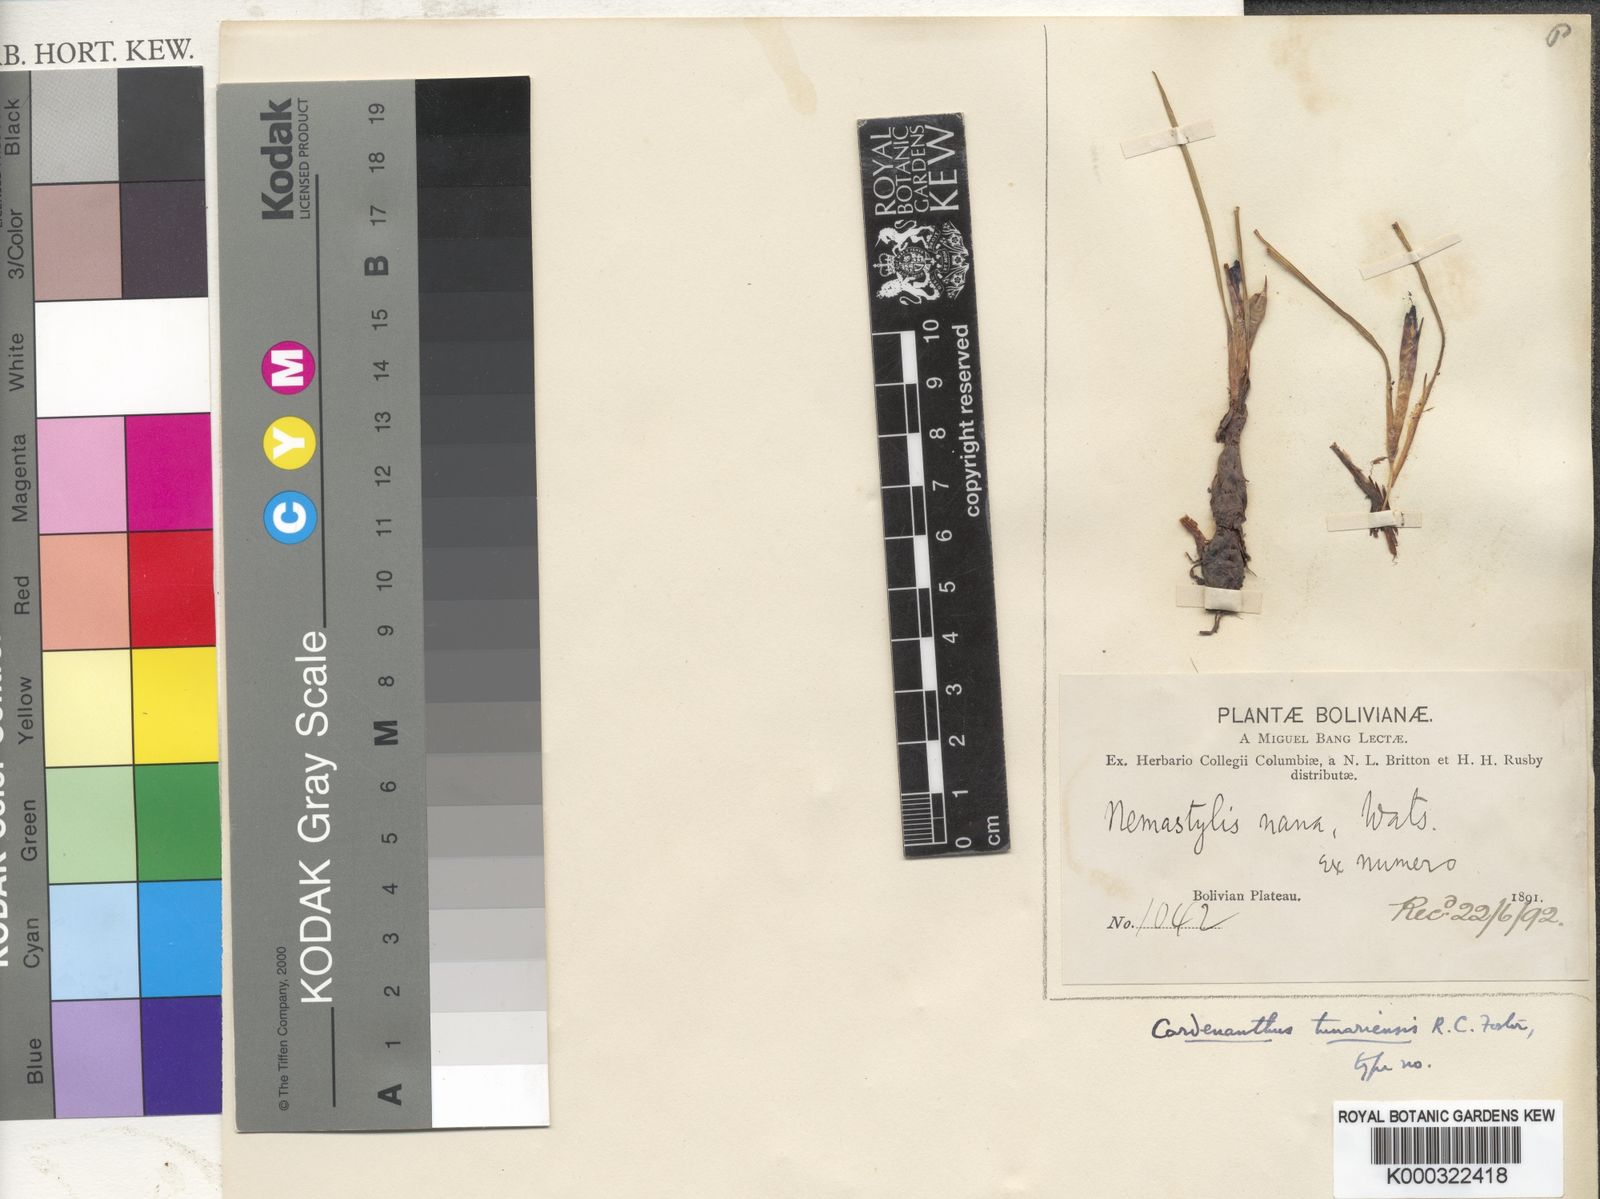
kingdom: Plantae
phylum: Tracheophyta
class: Liliopsida
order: Asparagales
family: Iridaceae
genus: Mastigostyla
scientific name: Mastigostyla tunariensis
